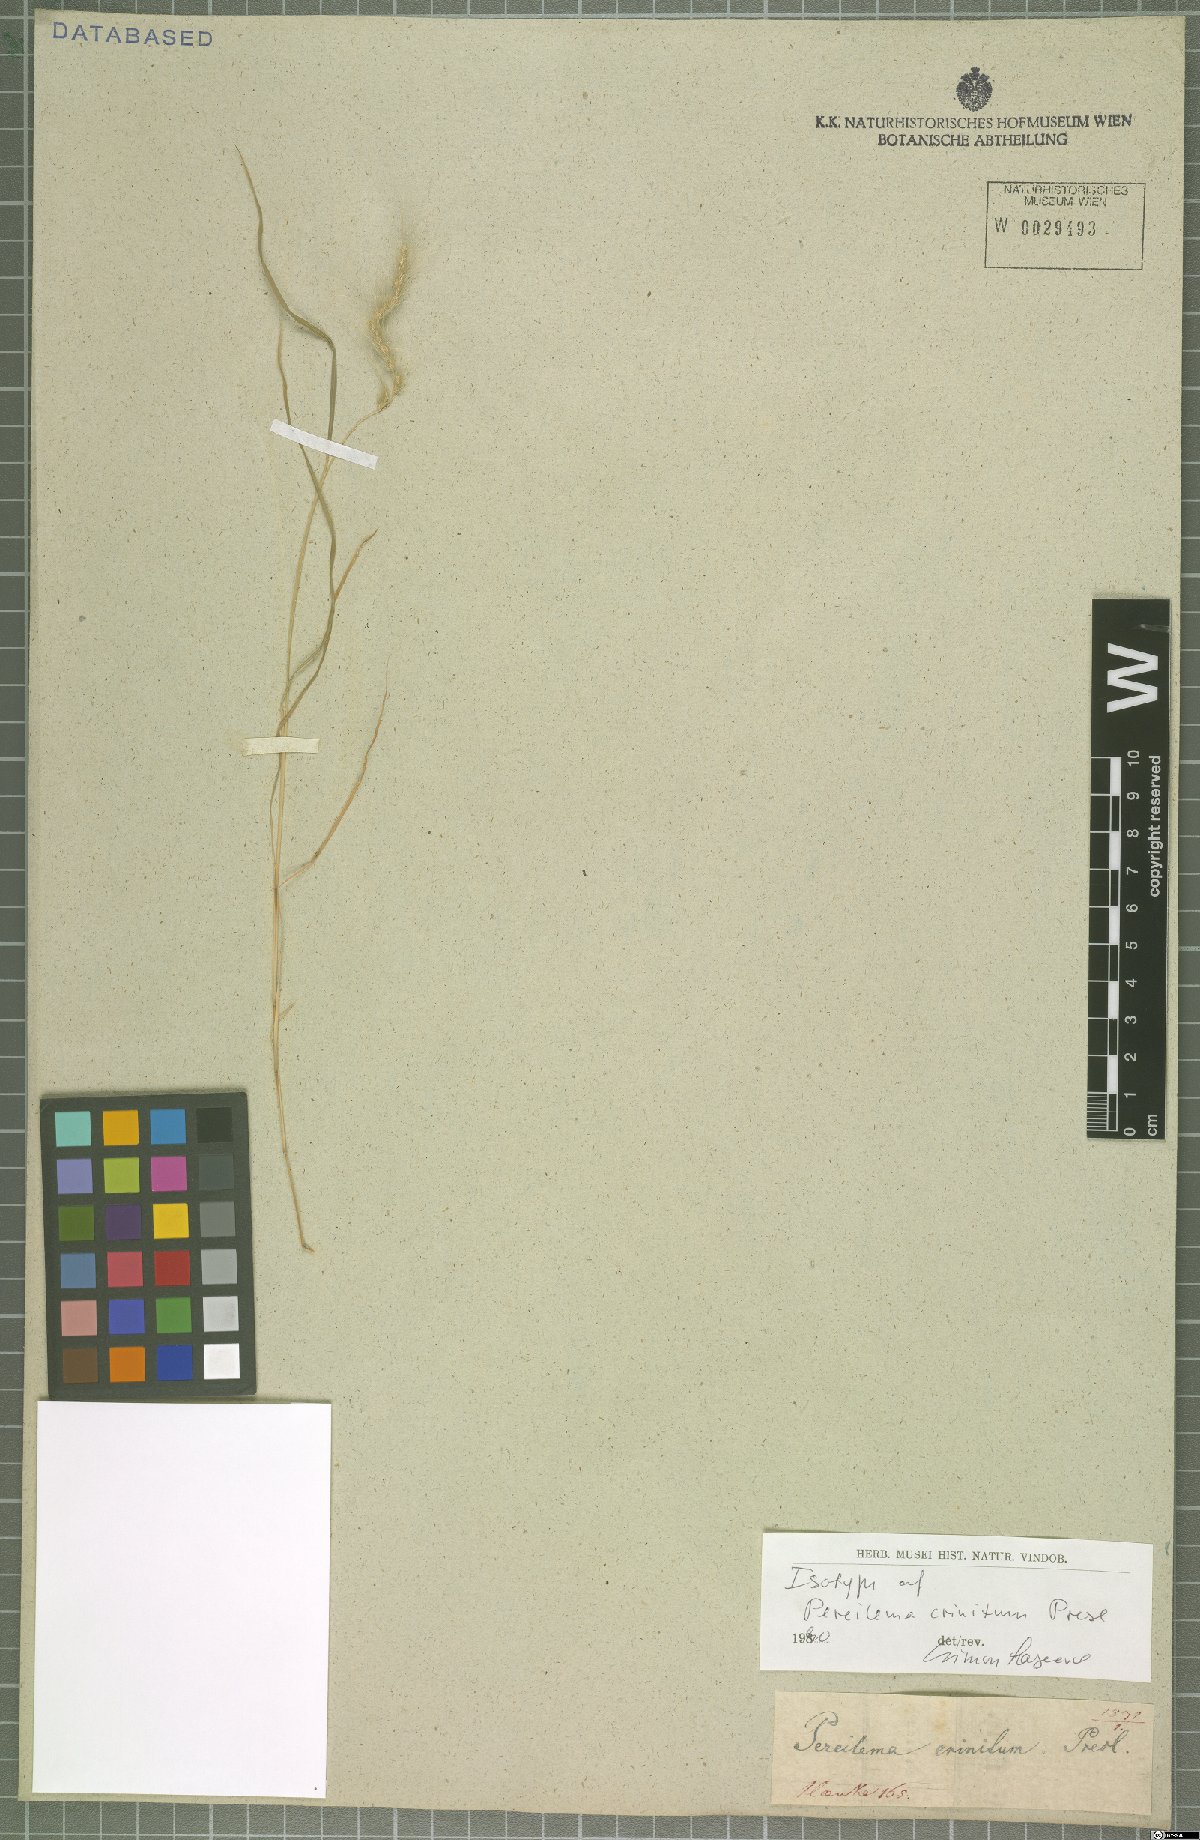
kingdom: Plantae
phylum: Tracheophyta
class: Liliopsida
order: Poales
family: Poaceae
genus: Muhlenbergia
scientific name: Muhlenbergia pereilema
